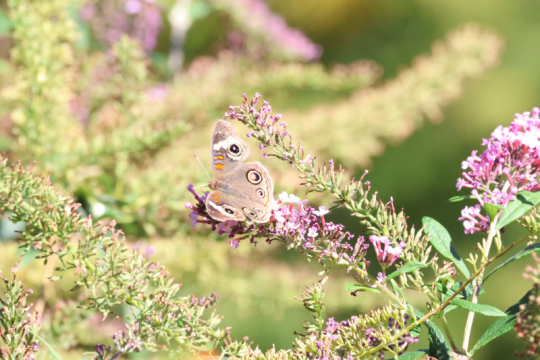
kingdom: Animalia
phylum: Arthropoda
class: Insecta
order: Lepidoptera
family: Nymphalidae
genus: Junonia
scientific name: Junonia coenia
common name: Common Buckeye
